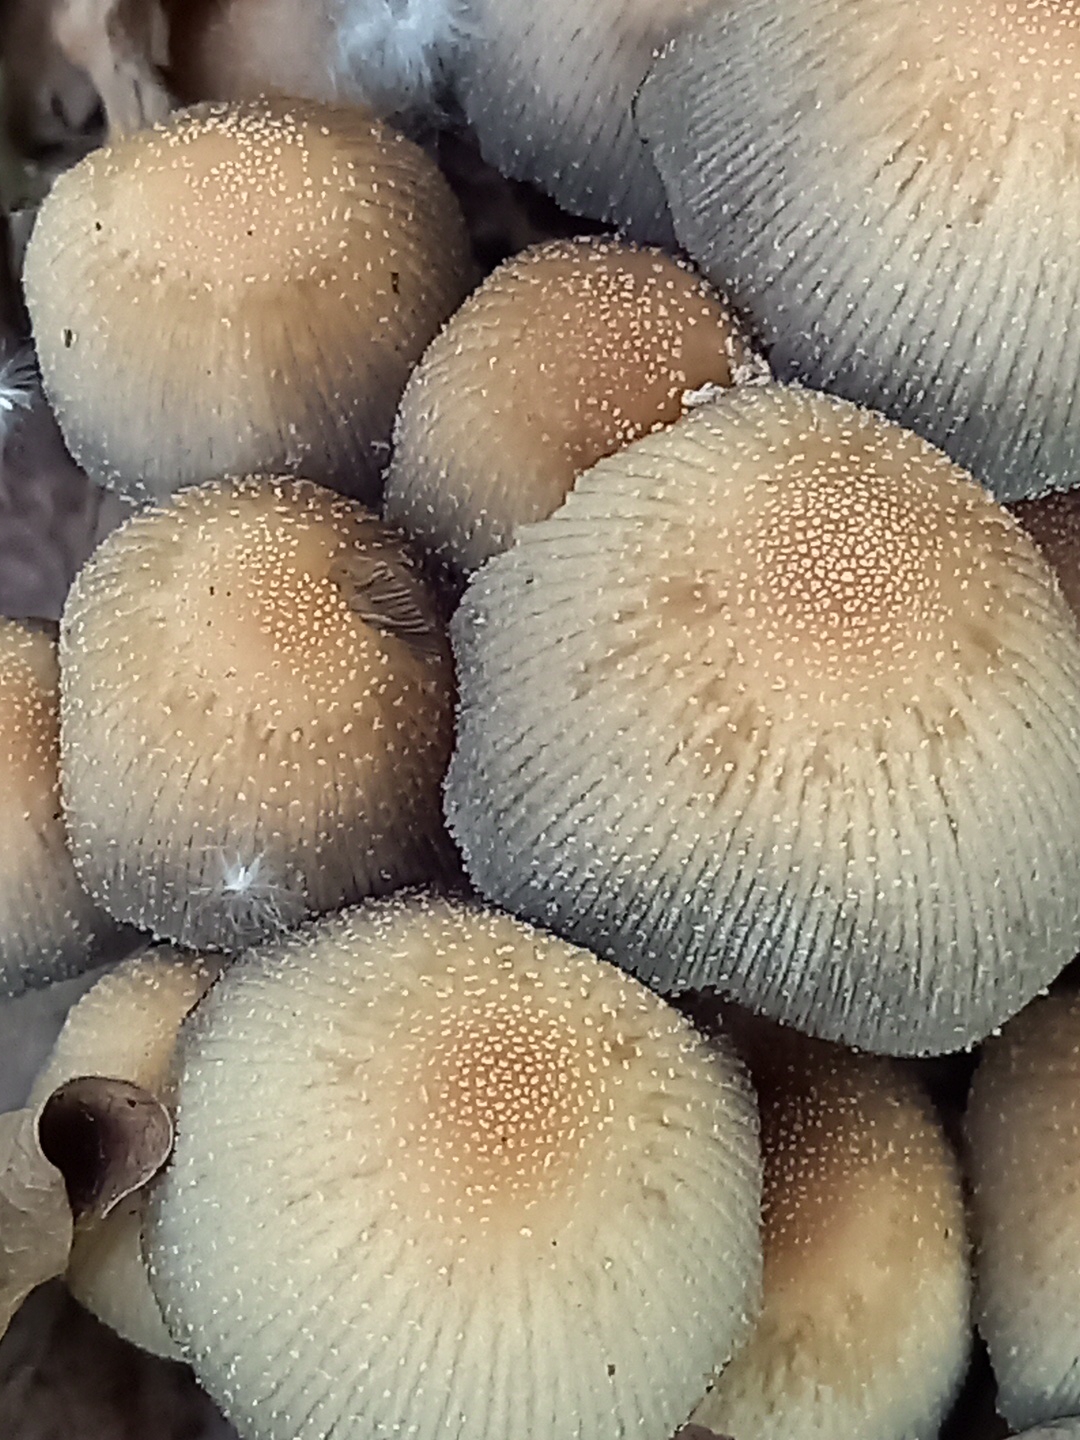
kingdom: Fungi
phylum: Basidiomycota
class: Agaricomycetes
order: Agaricales
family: Psathyrellaceae
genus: Coprinellus
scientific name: Coprinellus micaceus
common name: glimmer-blækhat
